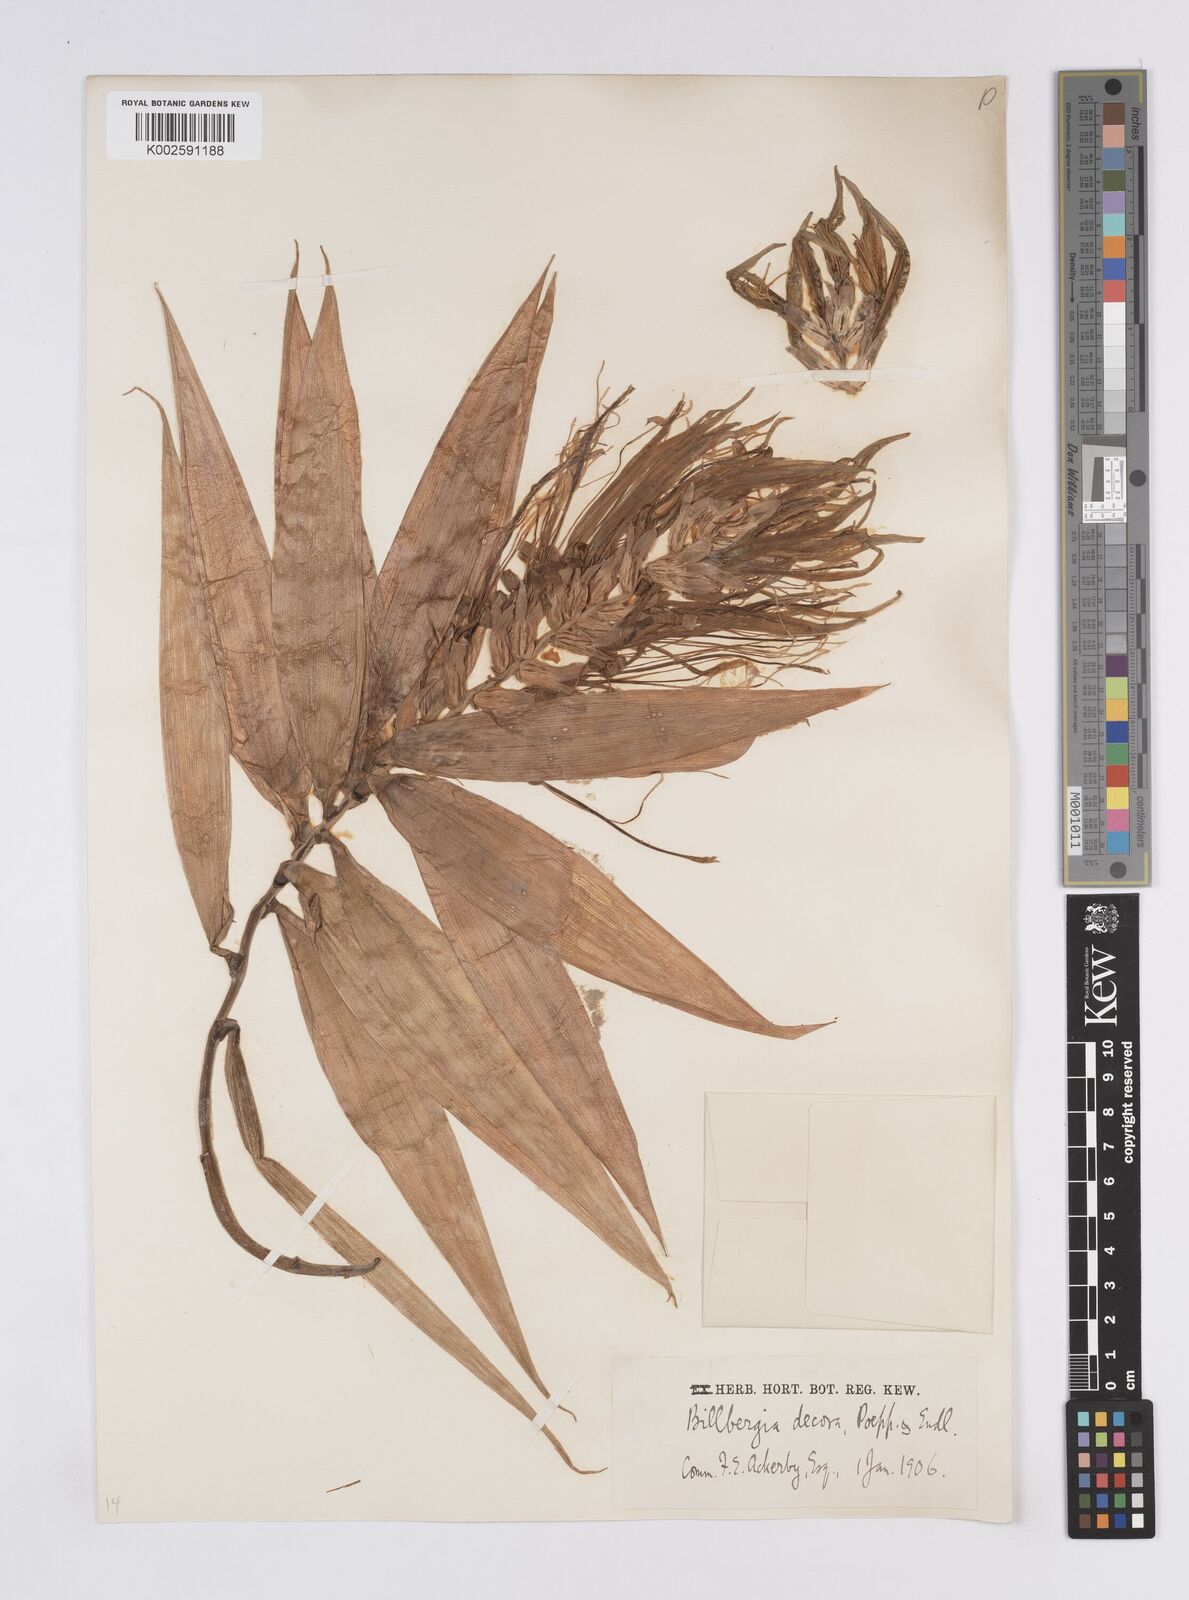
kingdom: Plantae
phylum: Tracheophyta
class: Liliopsida
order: Poales
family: Bromeliaceae
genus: Billbergia
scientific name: Billbergia decora
